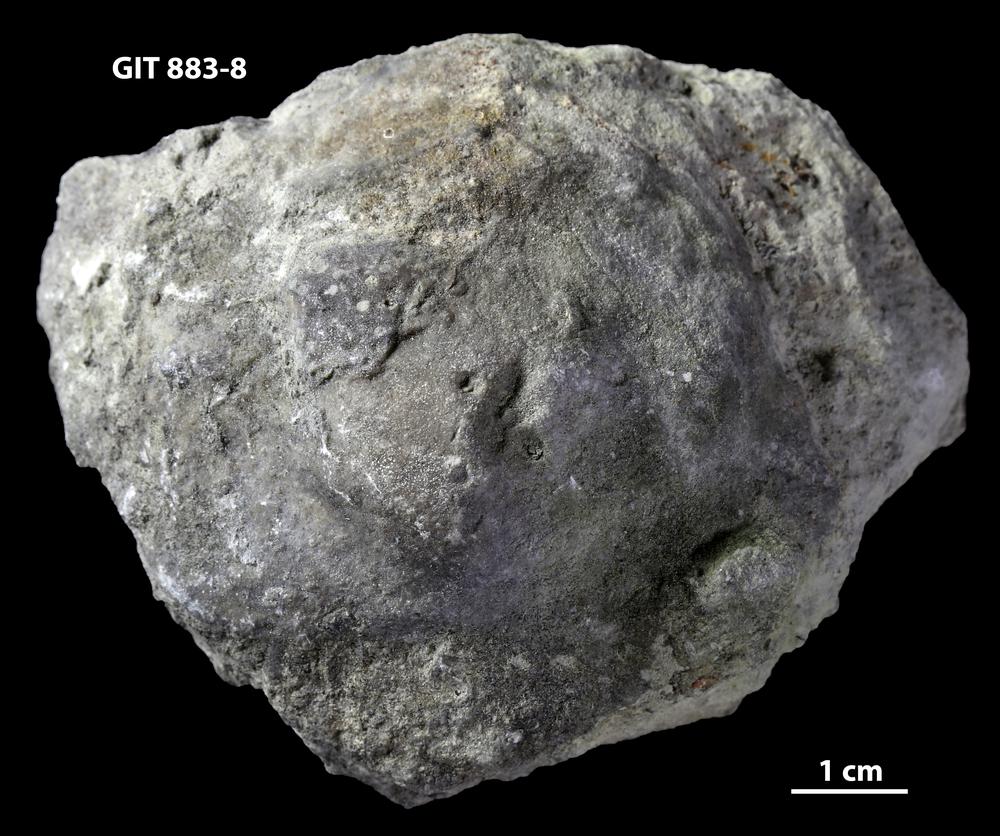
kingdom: Animalia
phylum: Porifera
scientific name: Porifera
